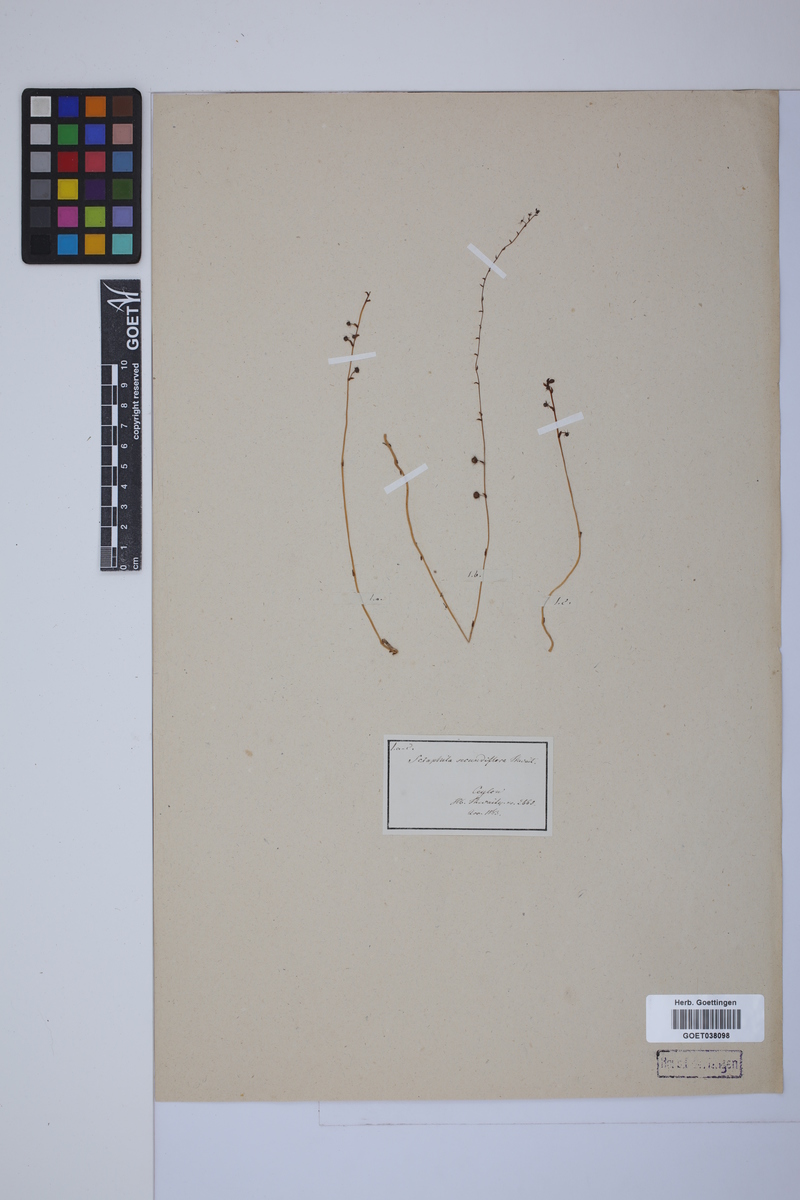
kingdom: Plantae
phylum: Tracheophyta
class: Liliopsida
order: Pandanales
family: Triuridaceae
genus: Sciaphila
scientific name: Sciaphila secundiflora
